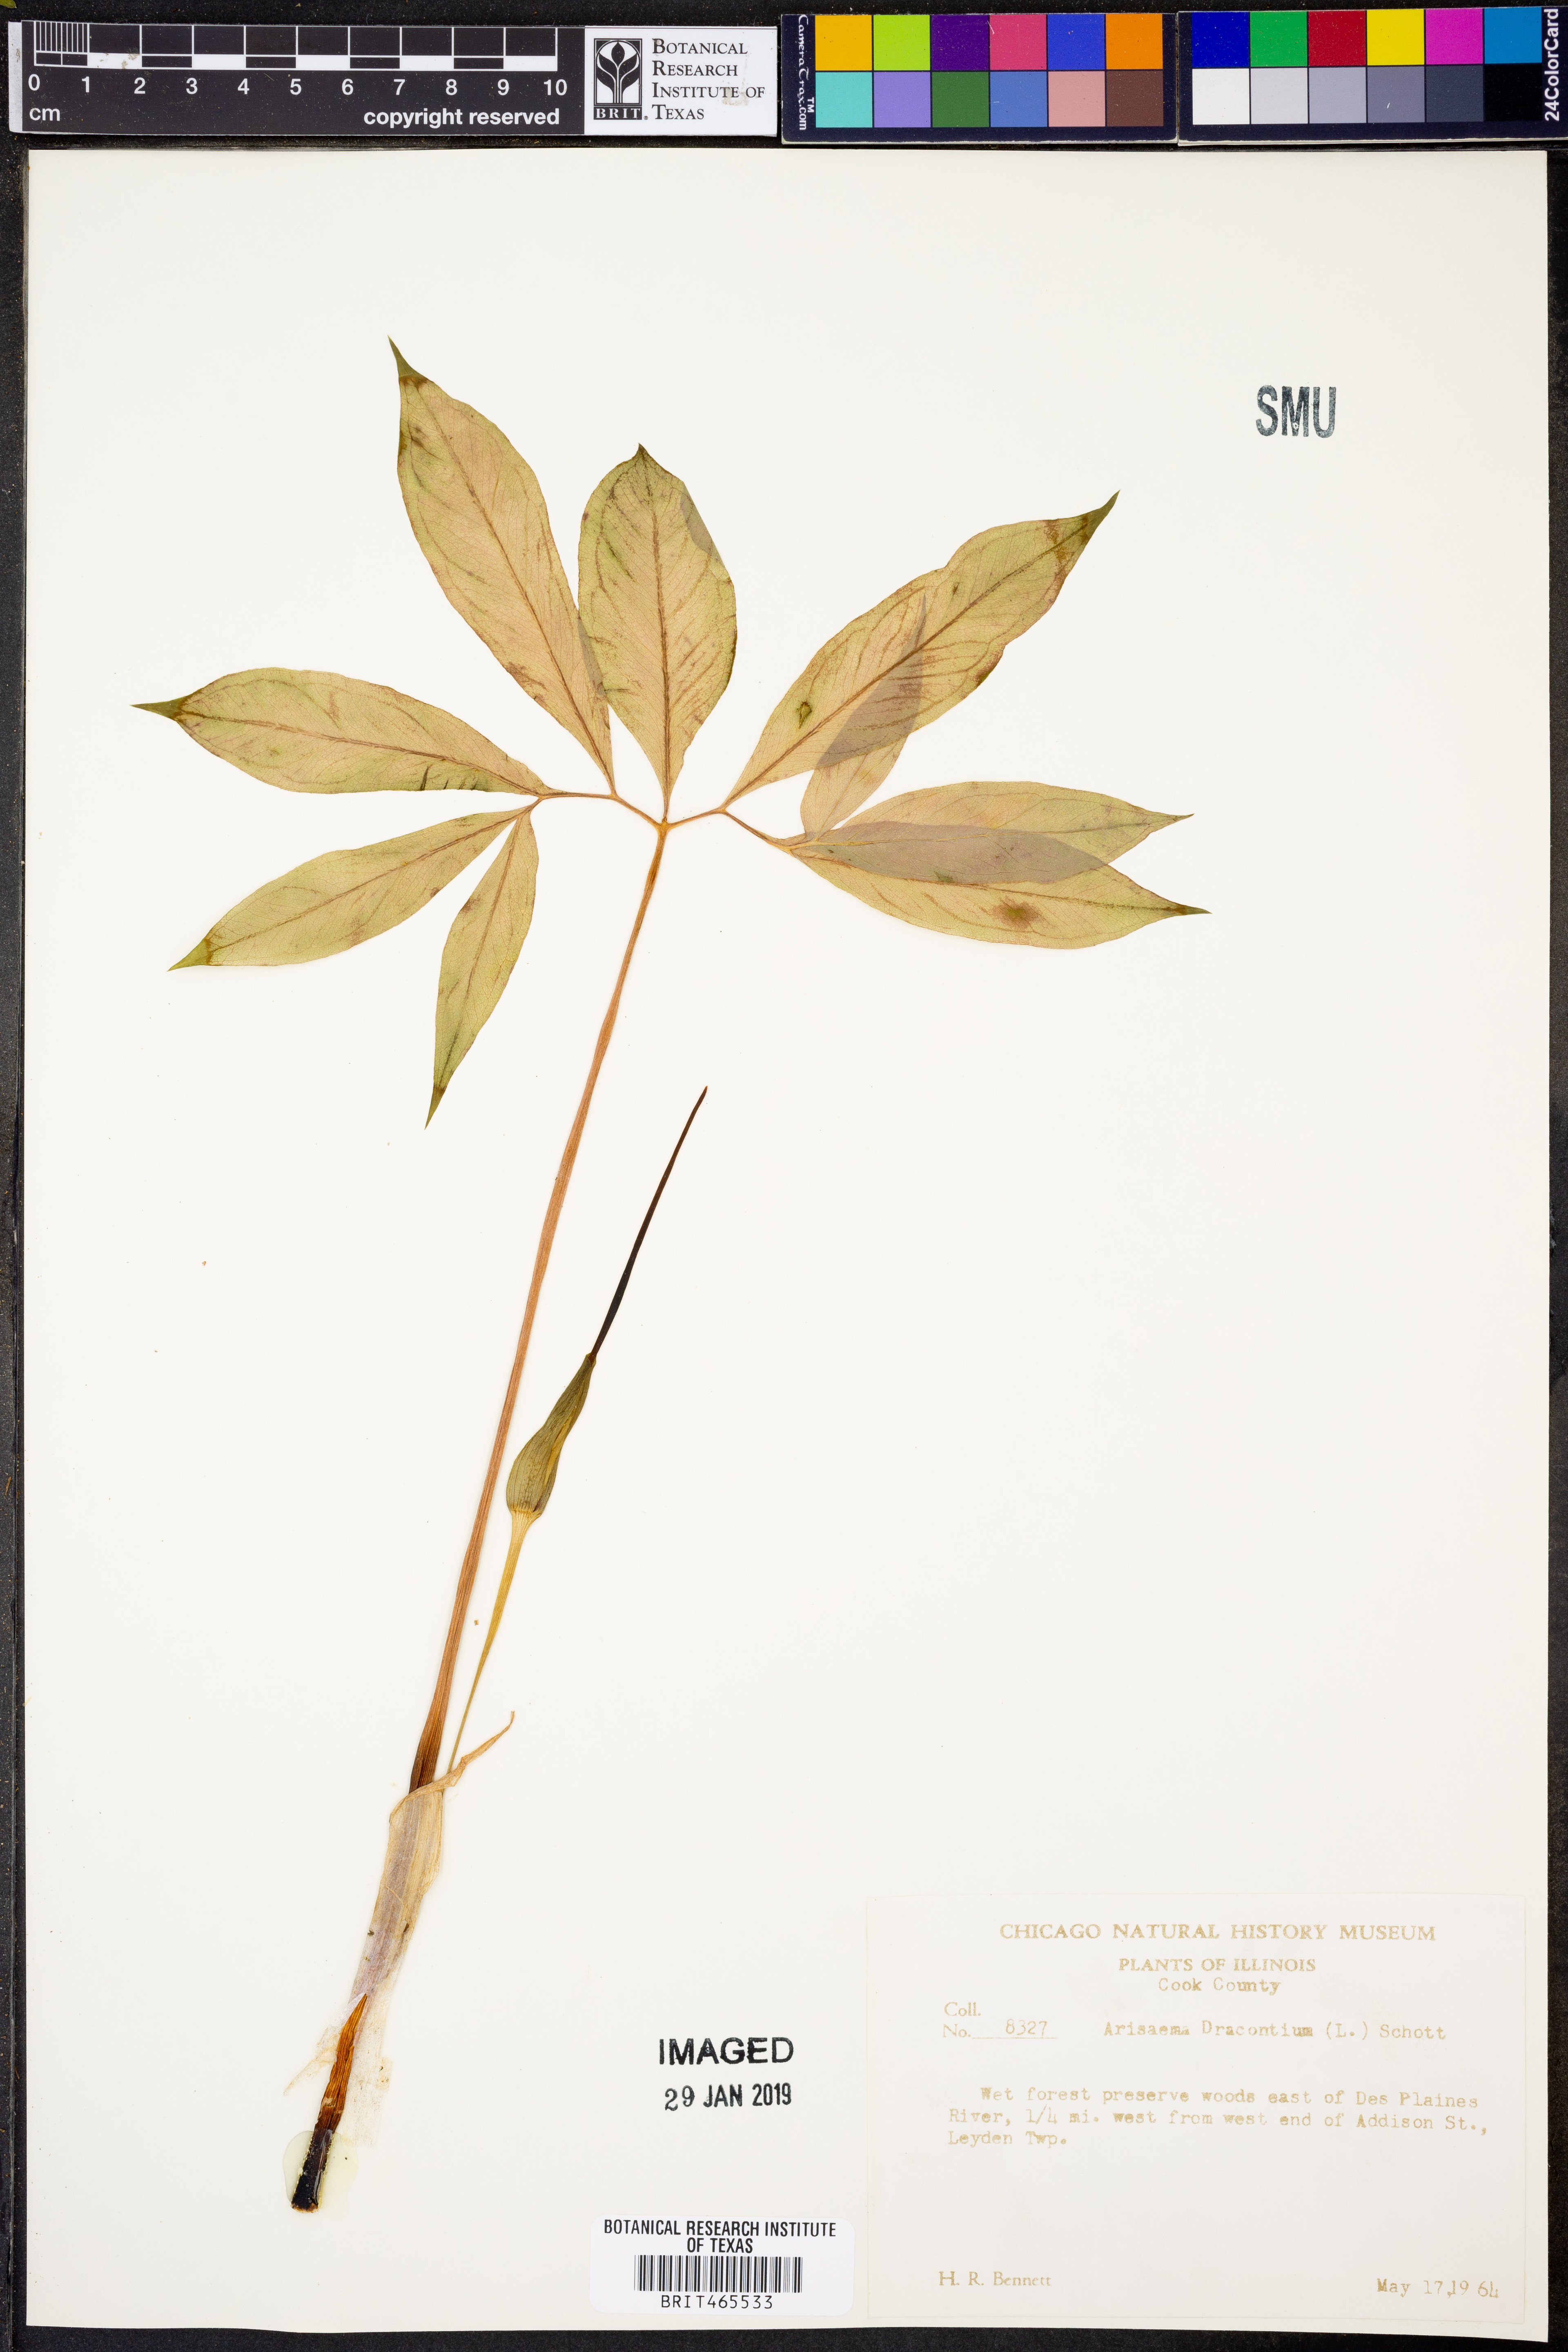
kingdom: Plantae
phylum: Tracheophyta
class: Liliopsida
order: Alismatales
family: Araceae
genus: Arisaema
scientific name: Arisaema dracontium
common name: Dragon-arum
